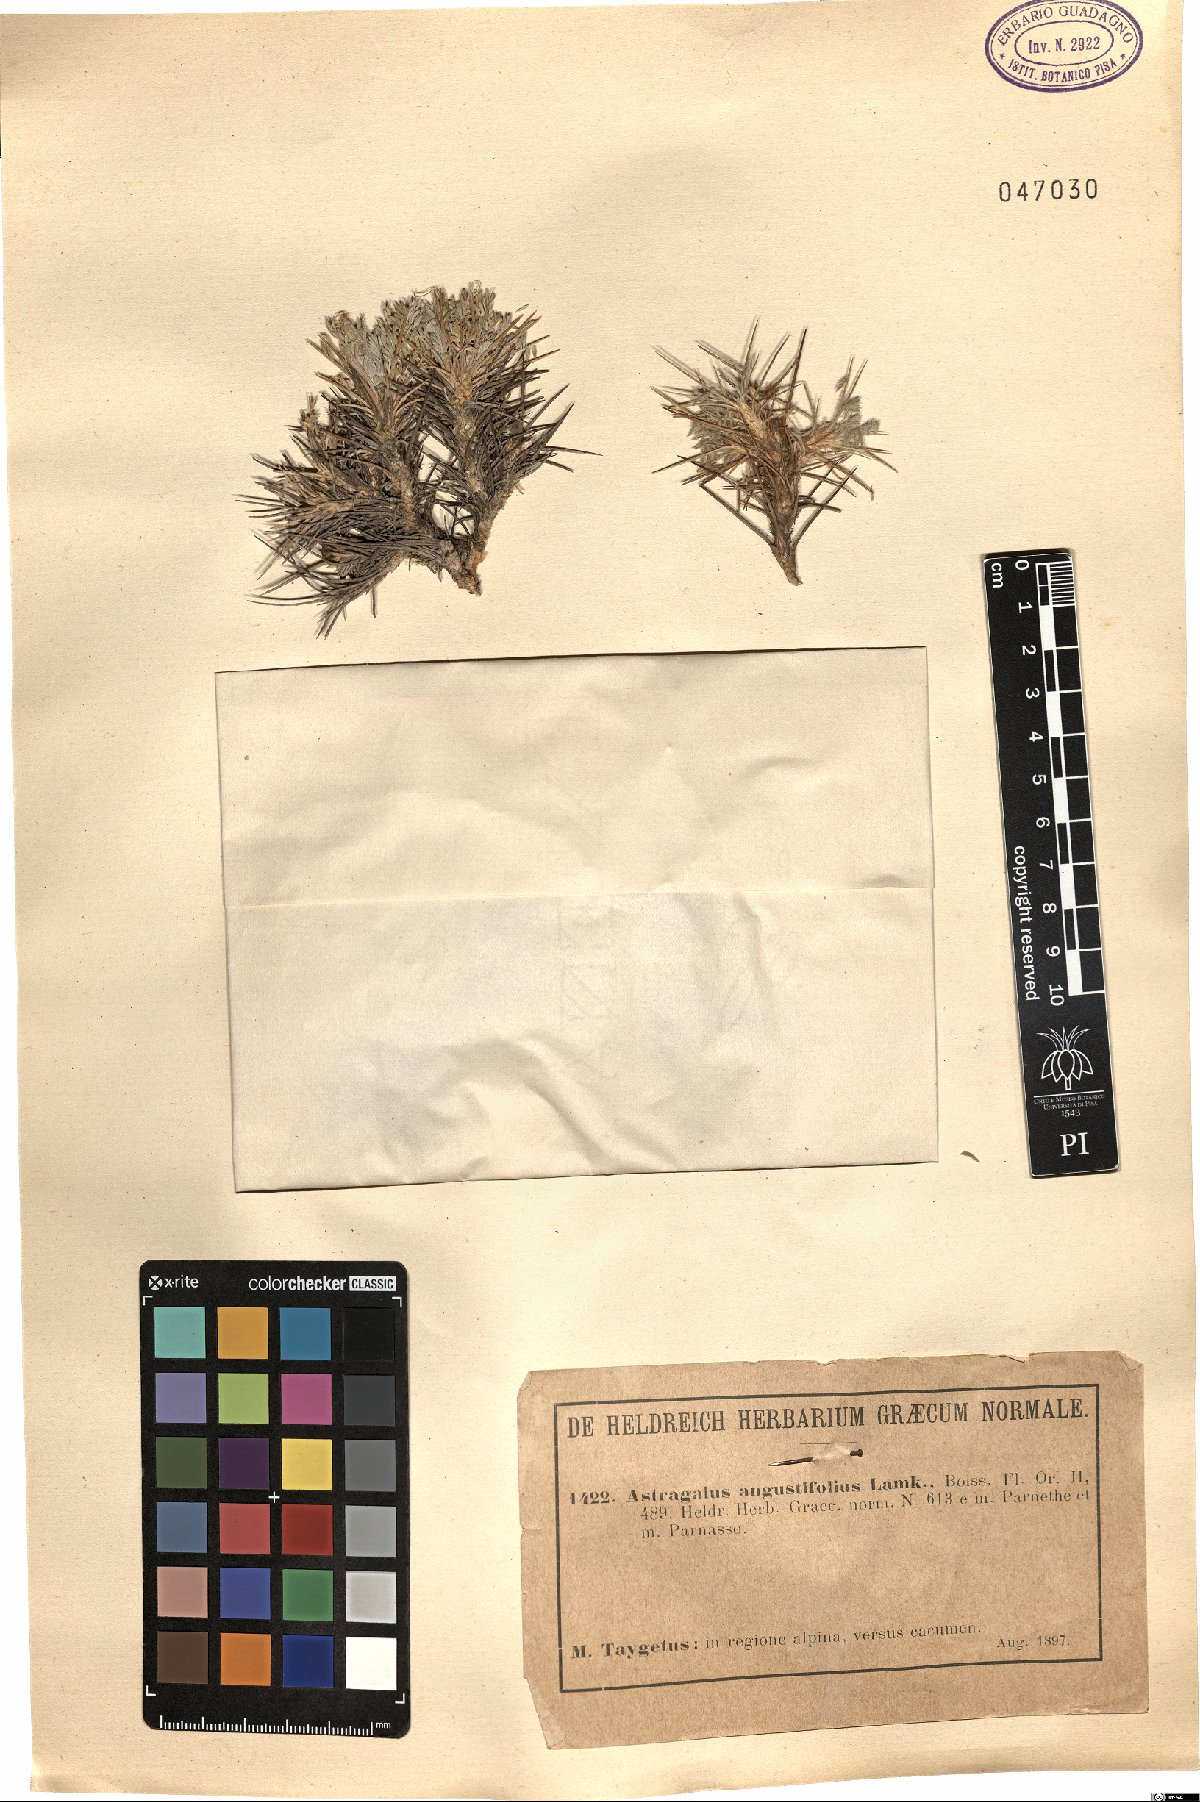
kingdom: Plantae
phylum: Tracheophyta
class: Magnoliopsida
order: Fabales
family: Fabaceae
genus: Astragalus
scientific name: Astragalus angustifolius
